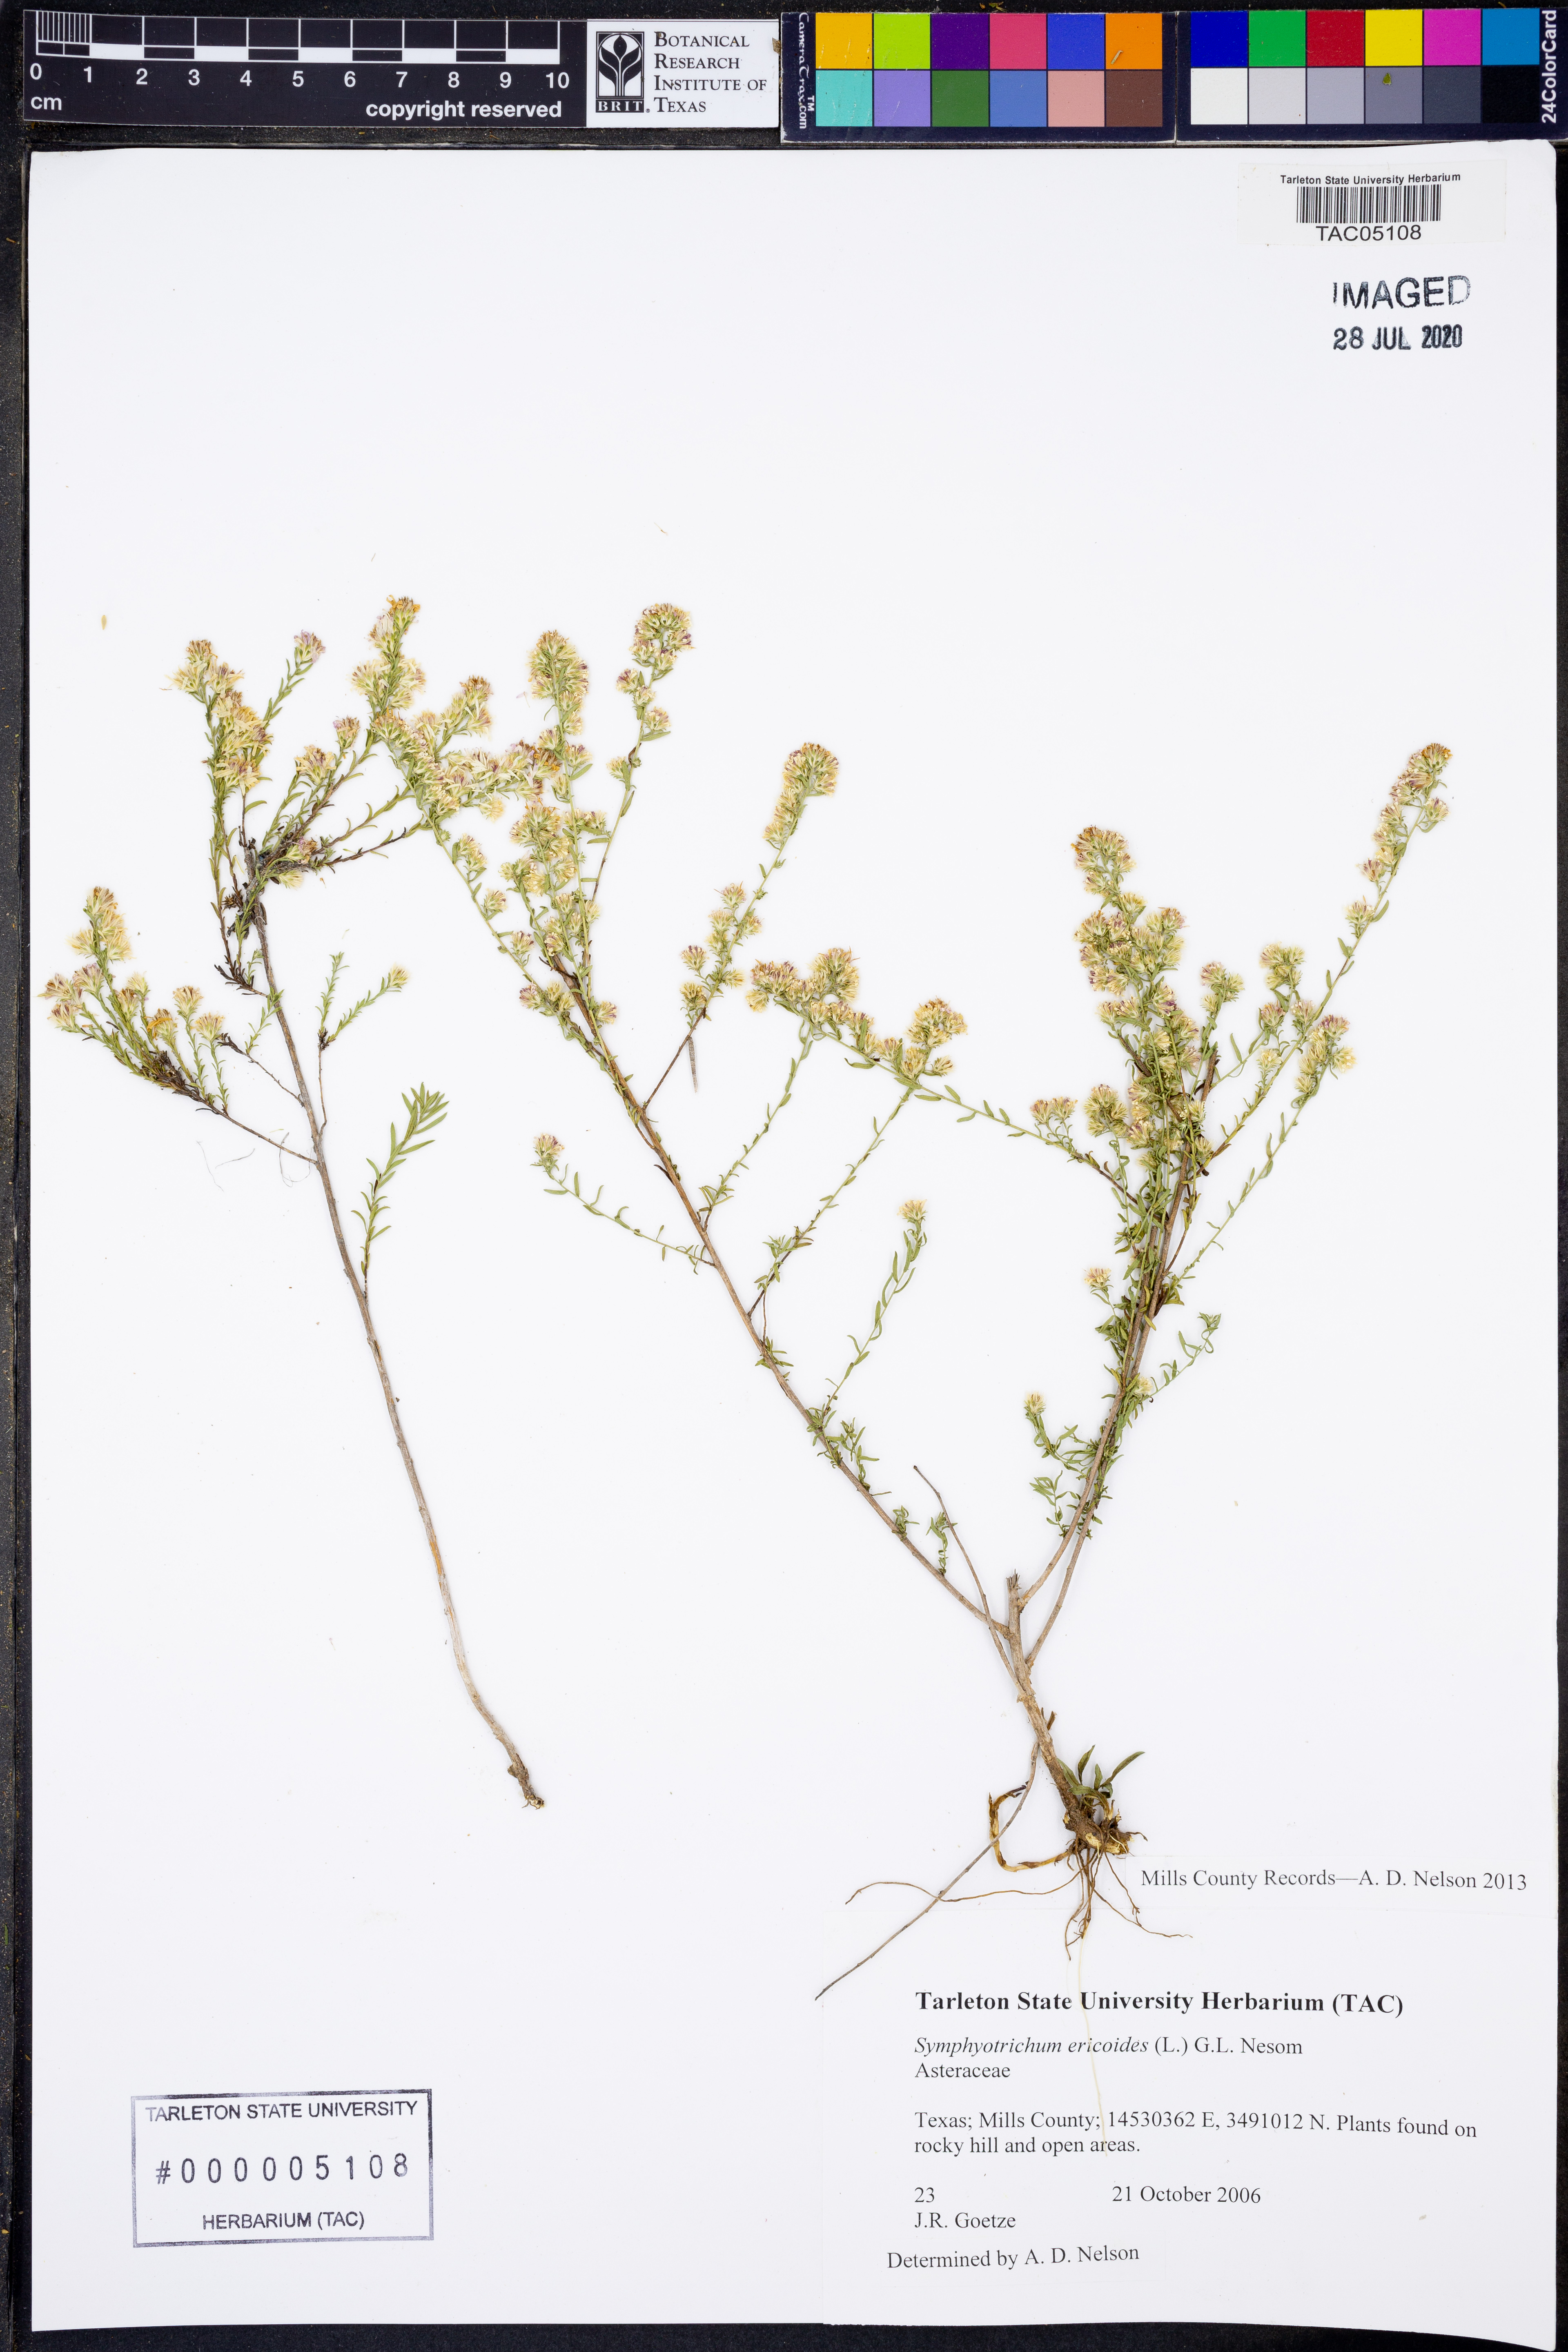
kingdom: Plantae
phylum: Tracheophyta
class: Magnoliopsida
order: Asterales
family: Asteraceae
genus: Symphyotrichum
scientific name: Symphyotrichum ericoides
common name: Heath aster
